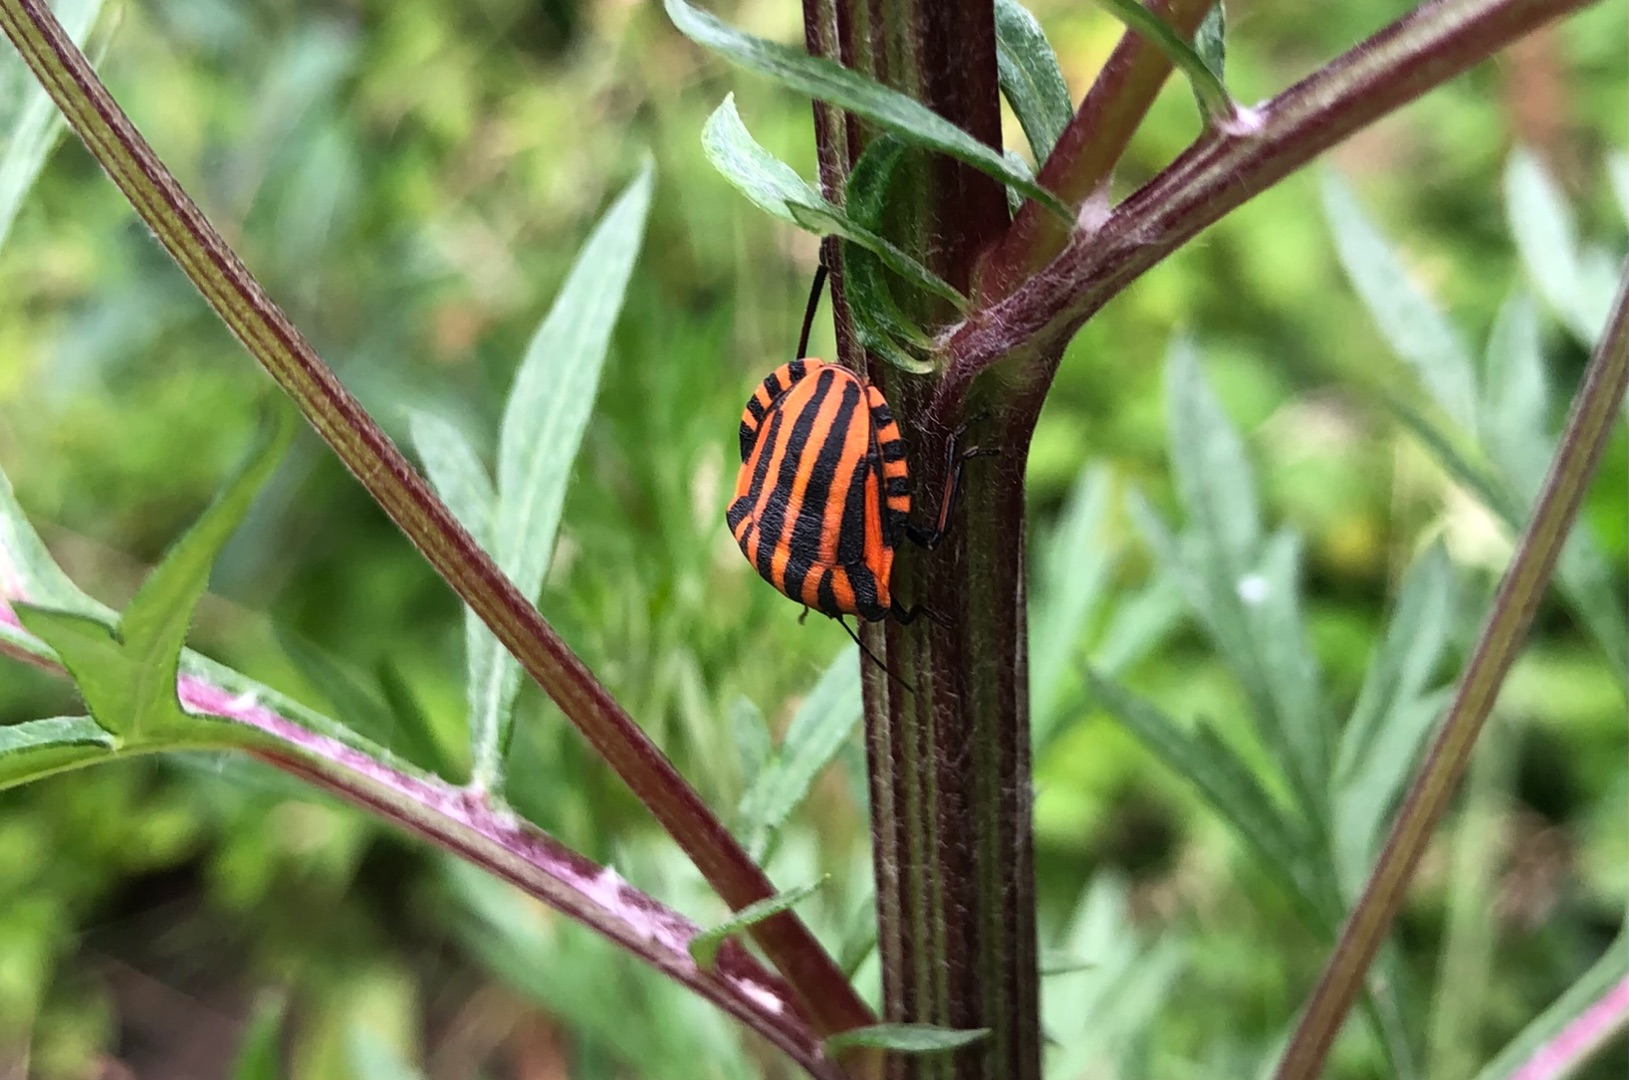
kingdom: Animalia
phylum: Arthropoda
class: Insecta
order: Hemiptera
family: Pentatomidae
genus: Graphosoma
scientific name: Graphosoma italicum
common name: Stribetæge
